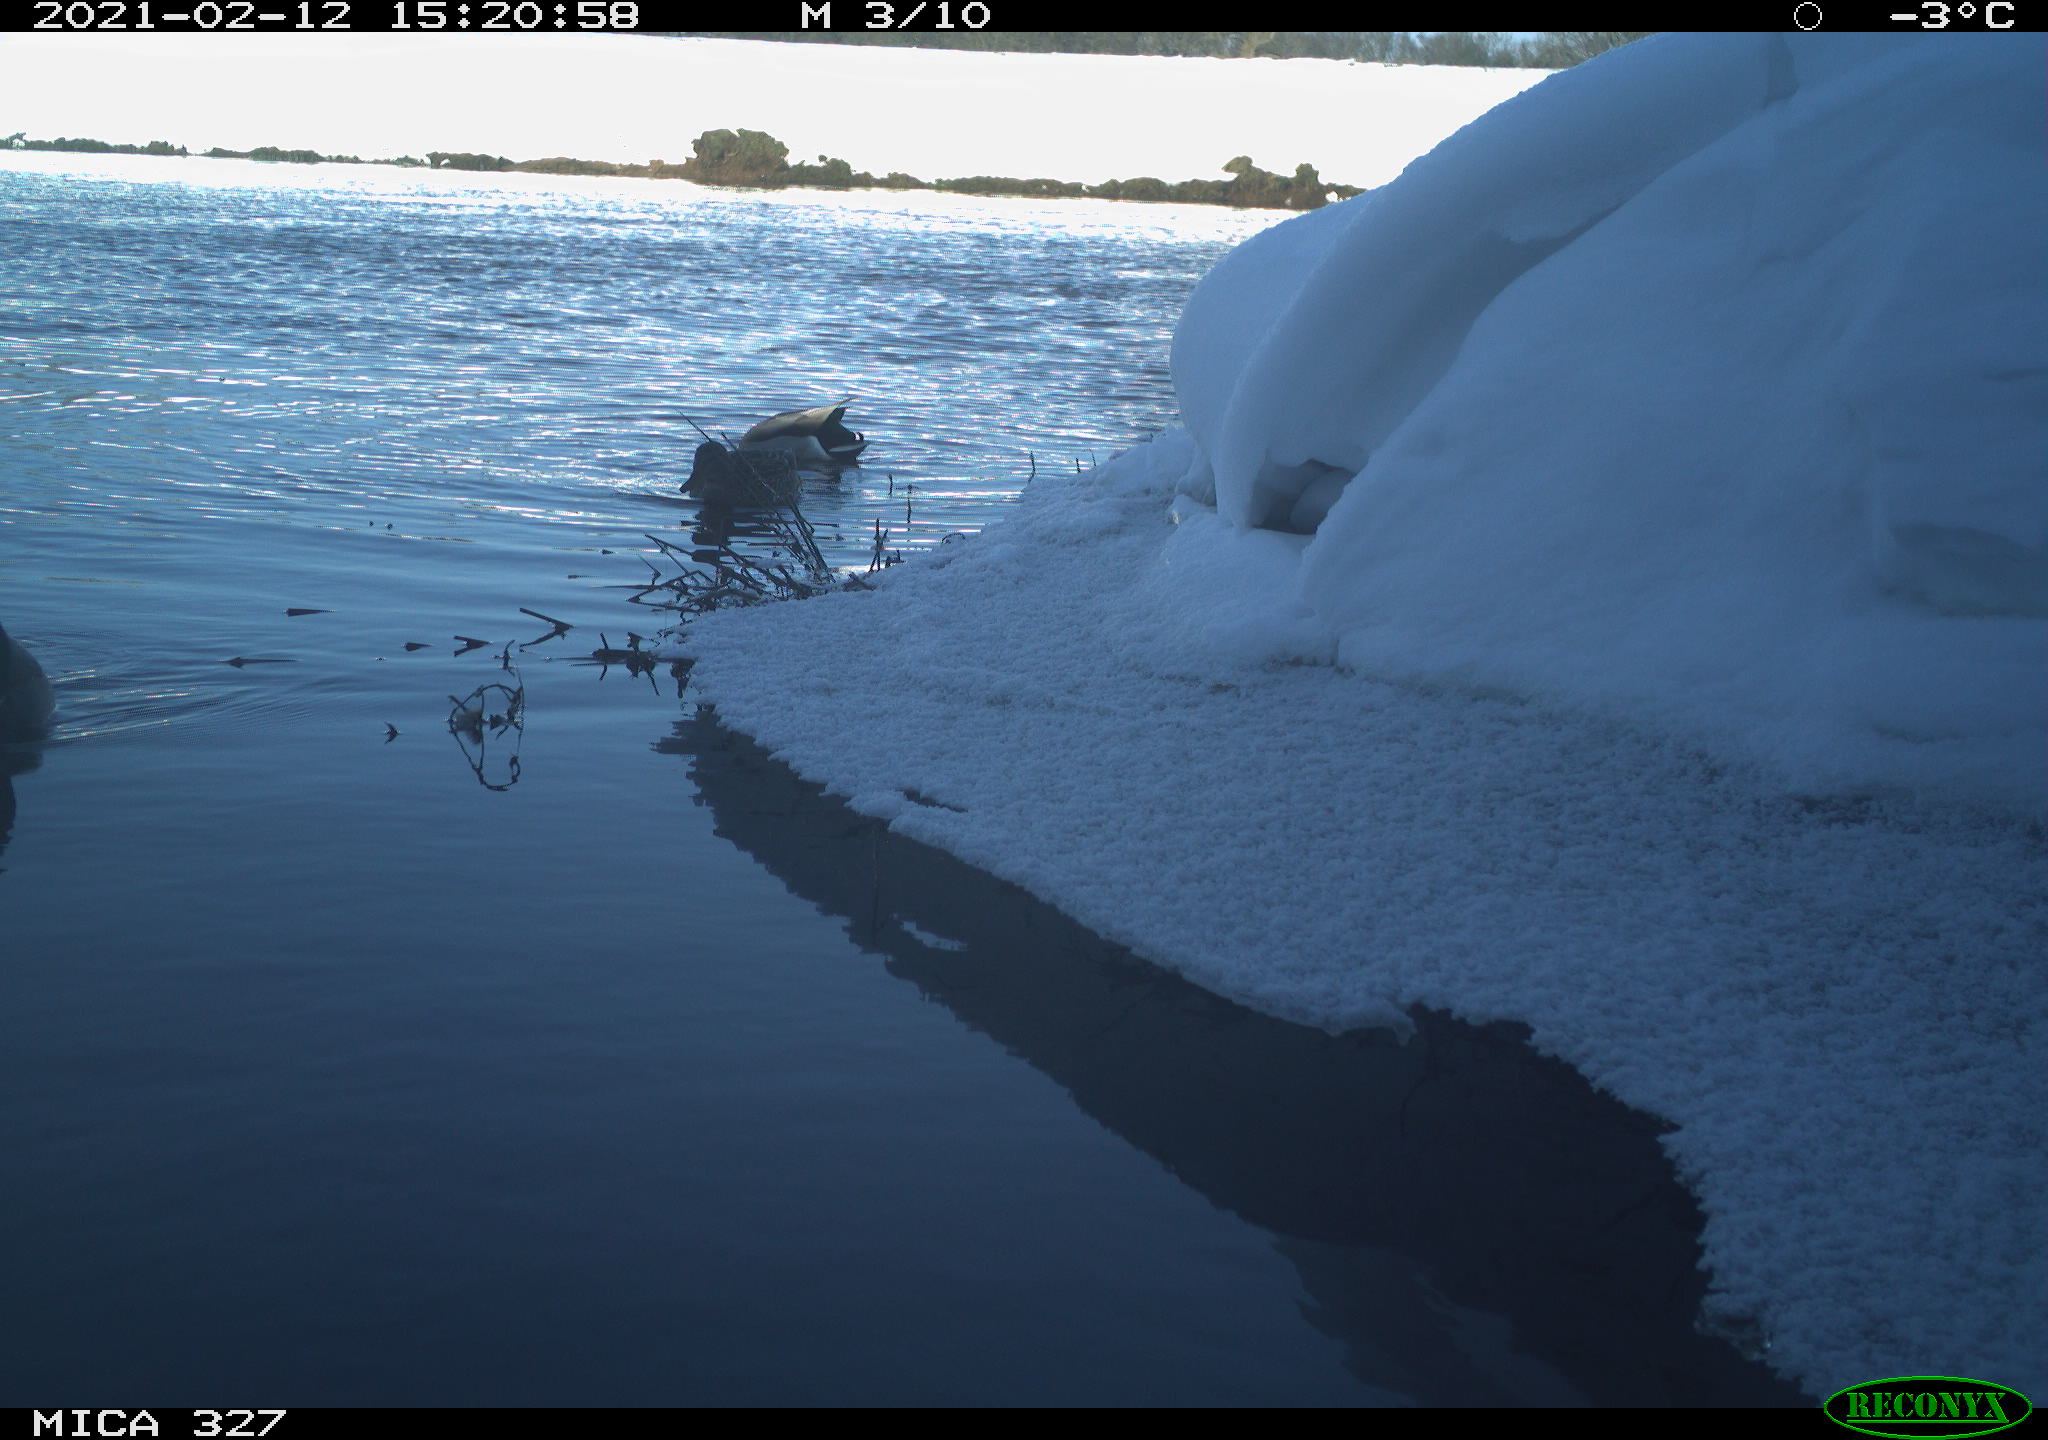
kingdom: Animalia
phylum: Chordata
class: Aves
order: Anseriformes
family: Anatidae
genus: Anas
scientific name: Anas
